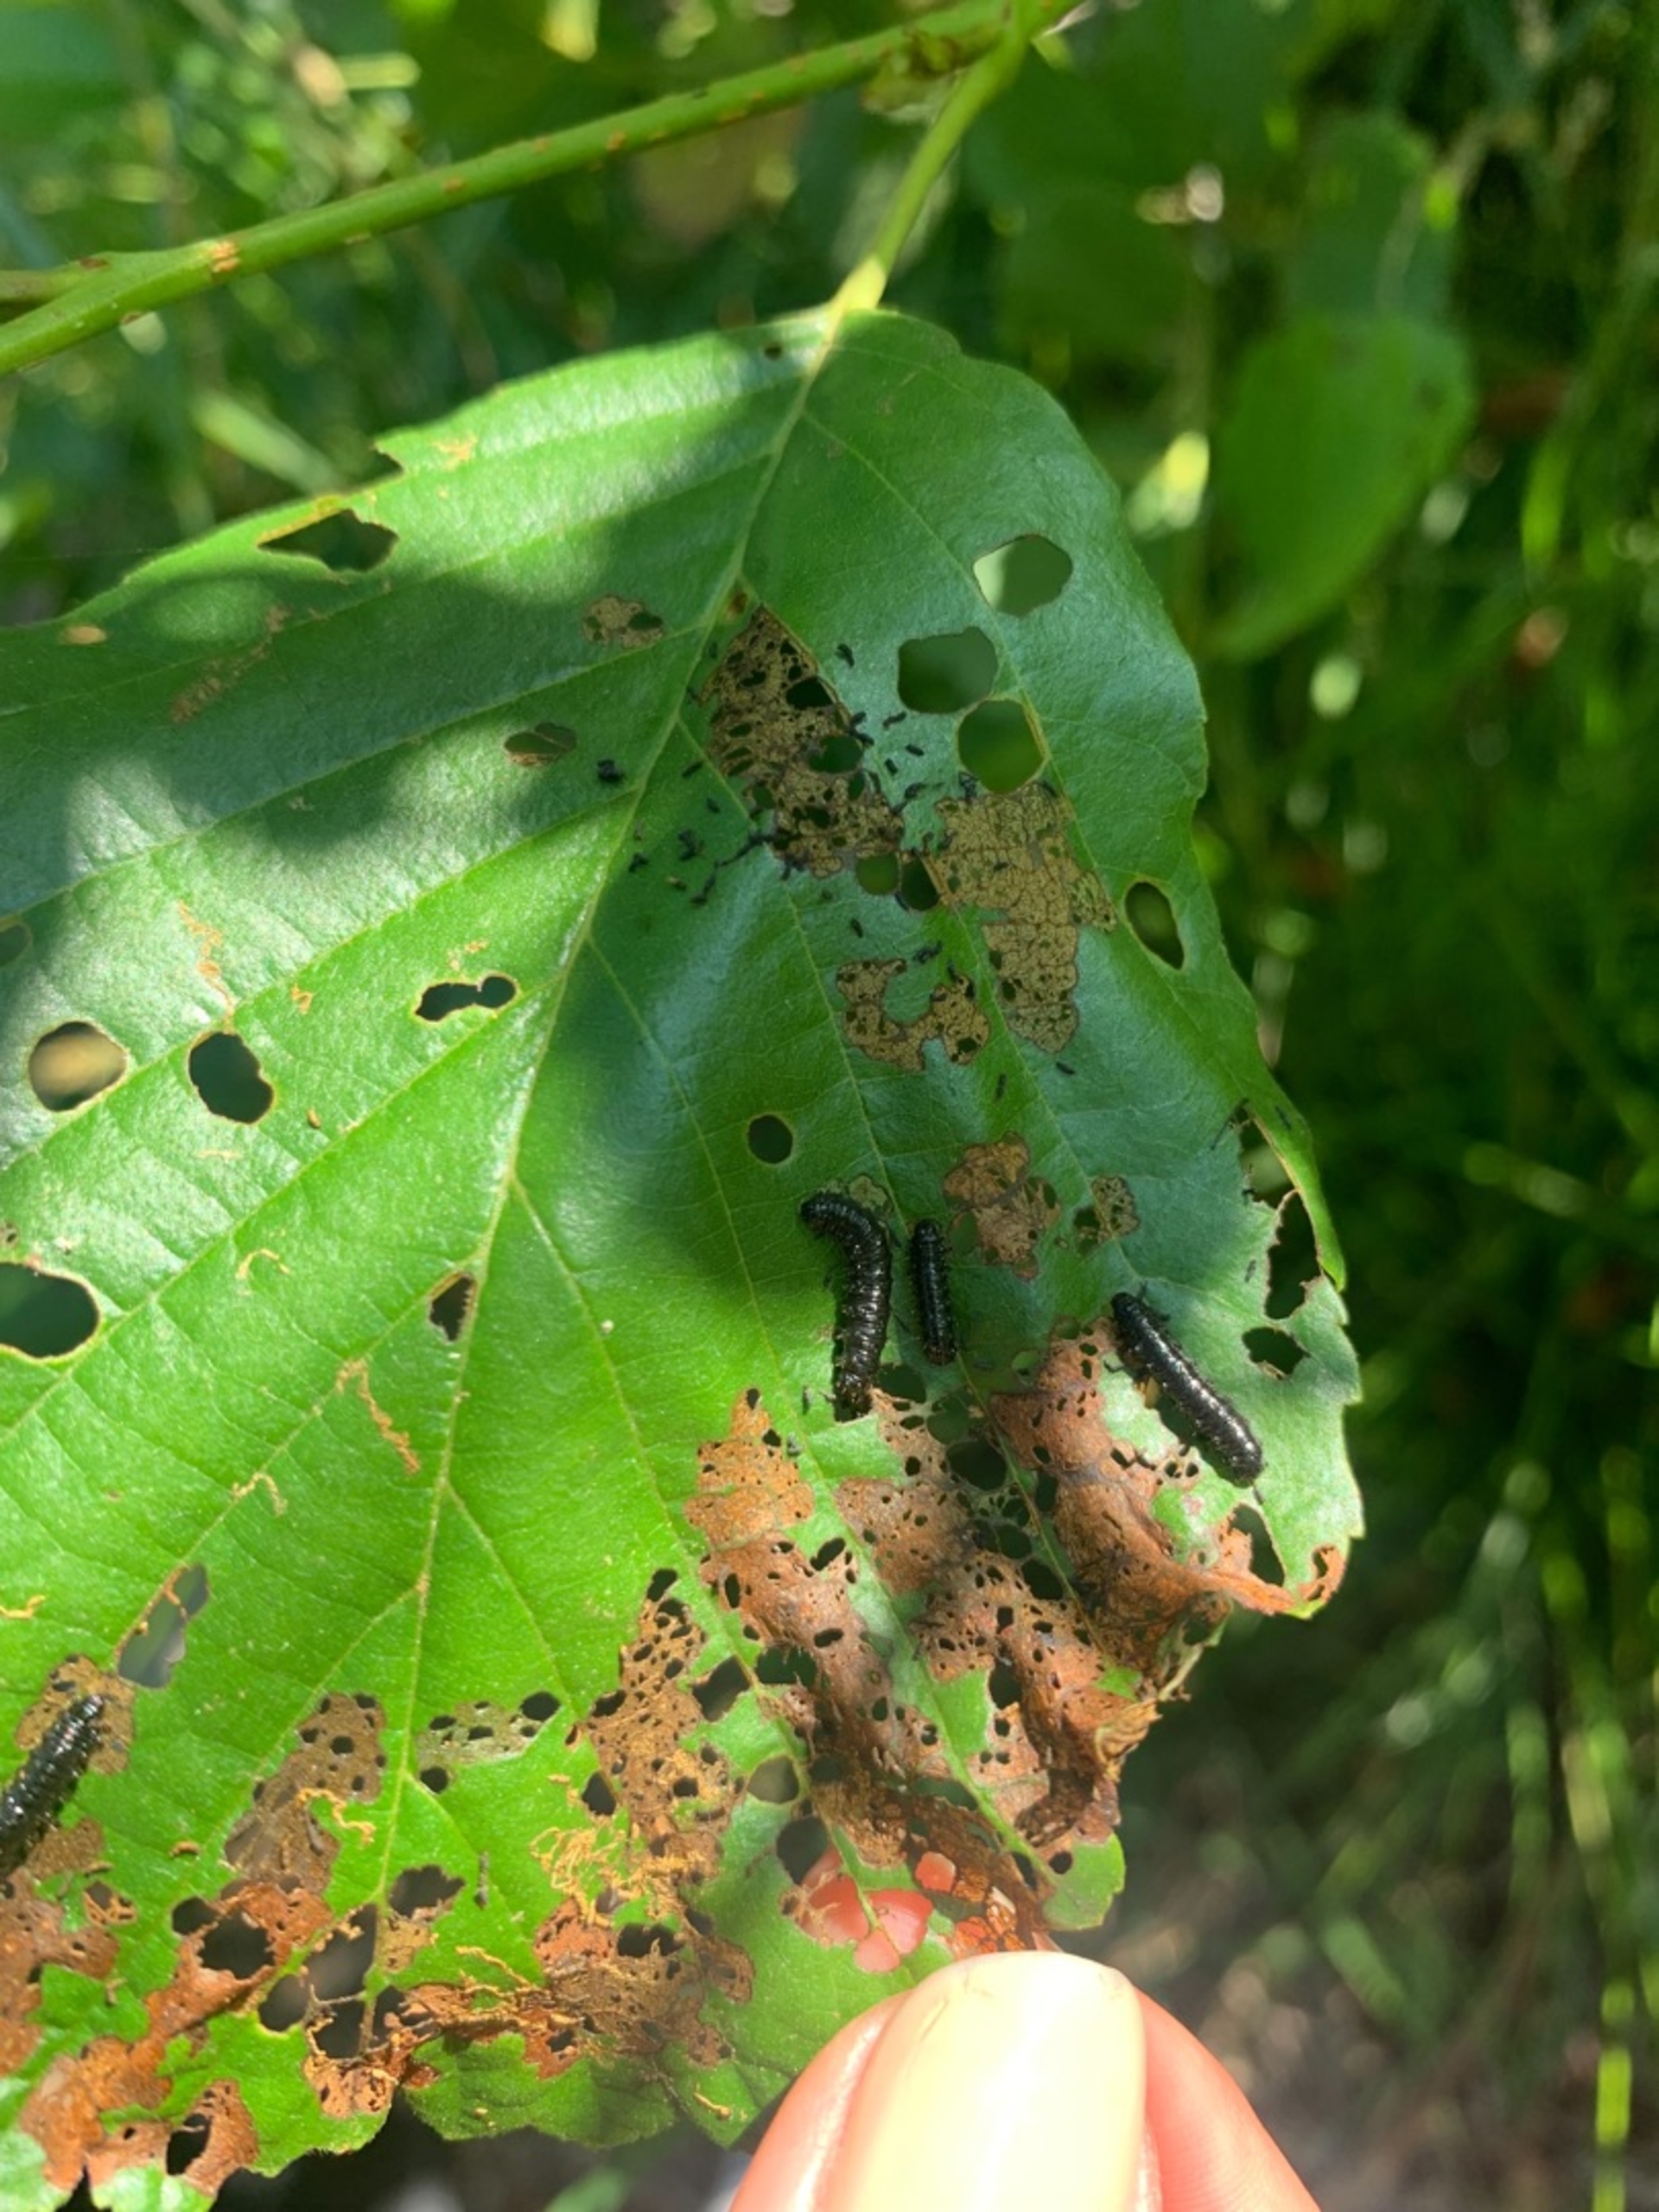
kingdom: Animalia
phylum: Arthropoda
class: Insecta
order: Coleoptera
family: Chrysomelidae
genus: Agelastica
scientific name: Agelastica alni
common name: Ellebladbille
